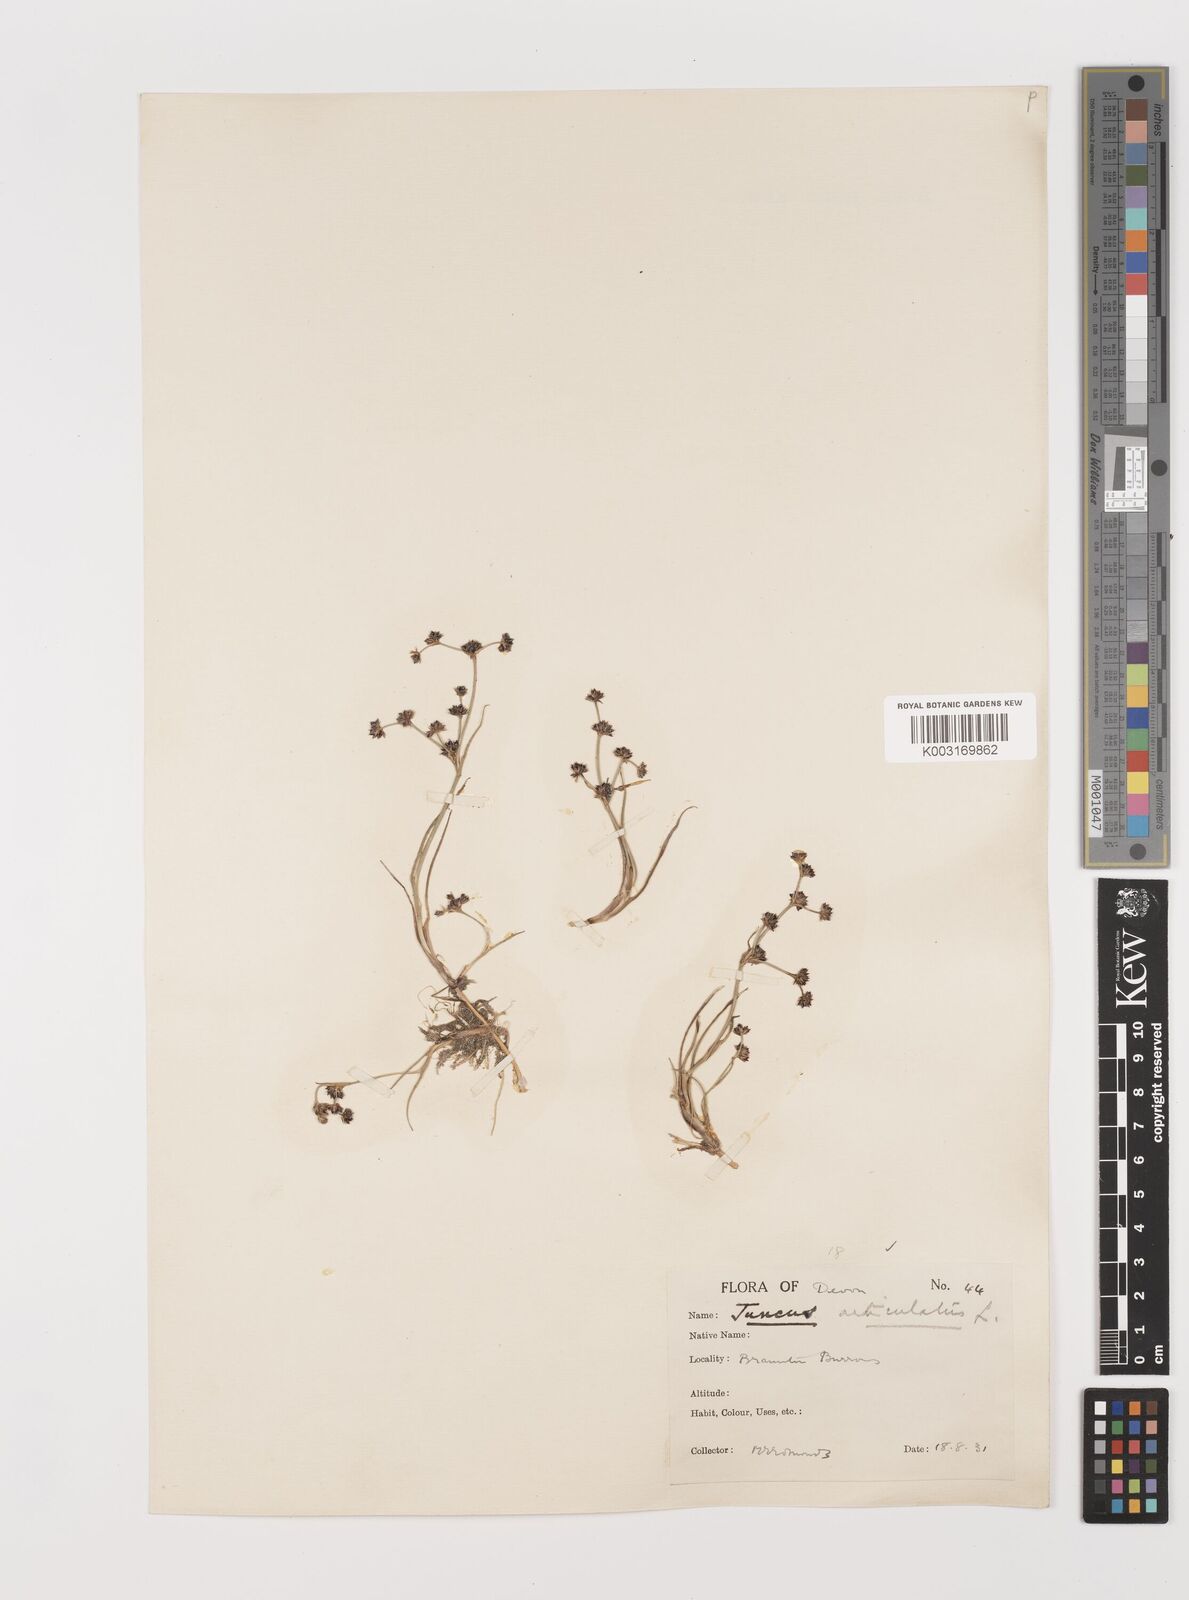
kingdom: Plantae
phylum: Tracheophyta
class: Liliopsida
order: Poales
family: Juncaceae
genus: Juncus
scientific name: Juncus articulatus
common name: Jointed rush
